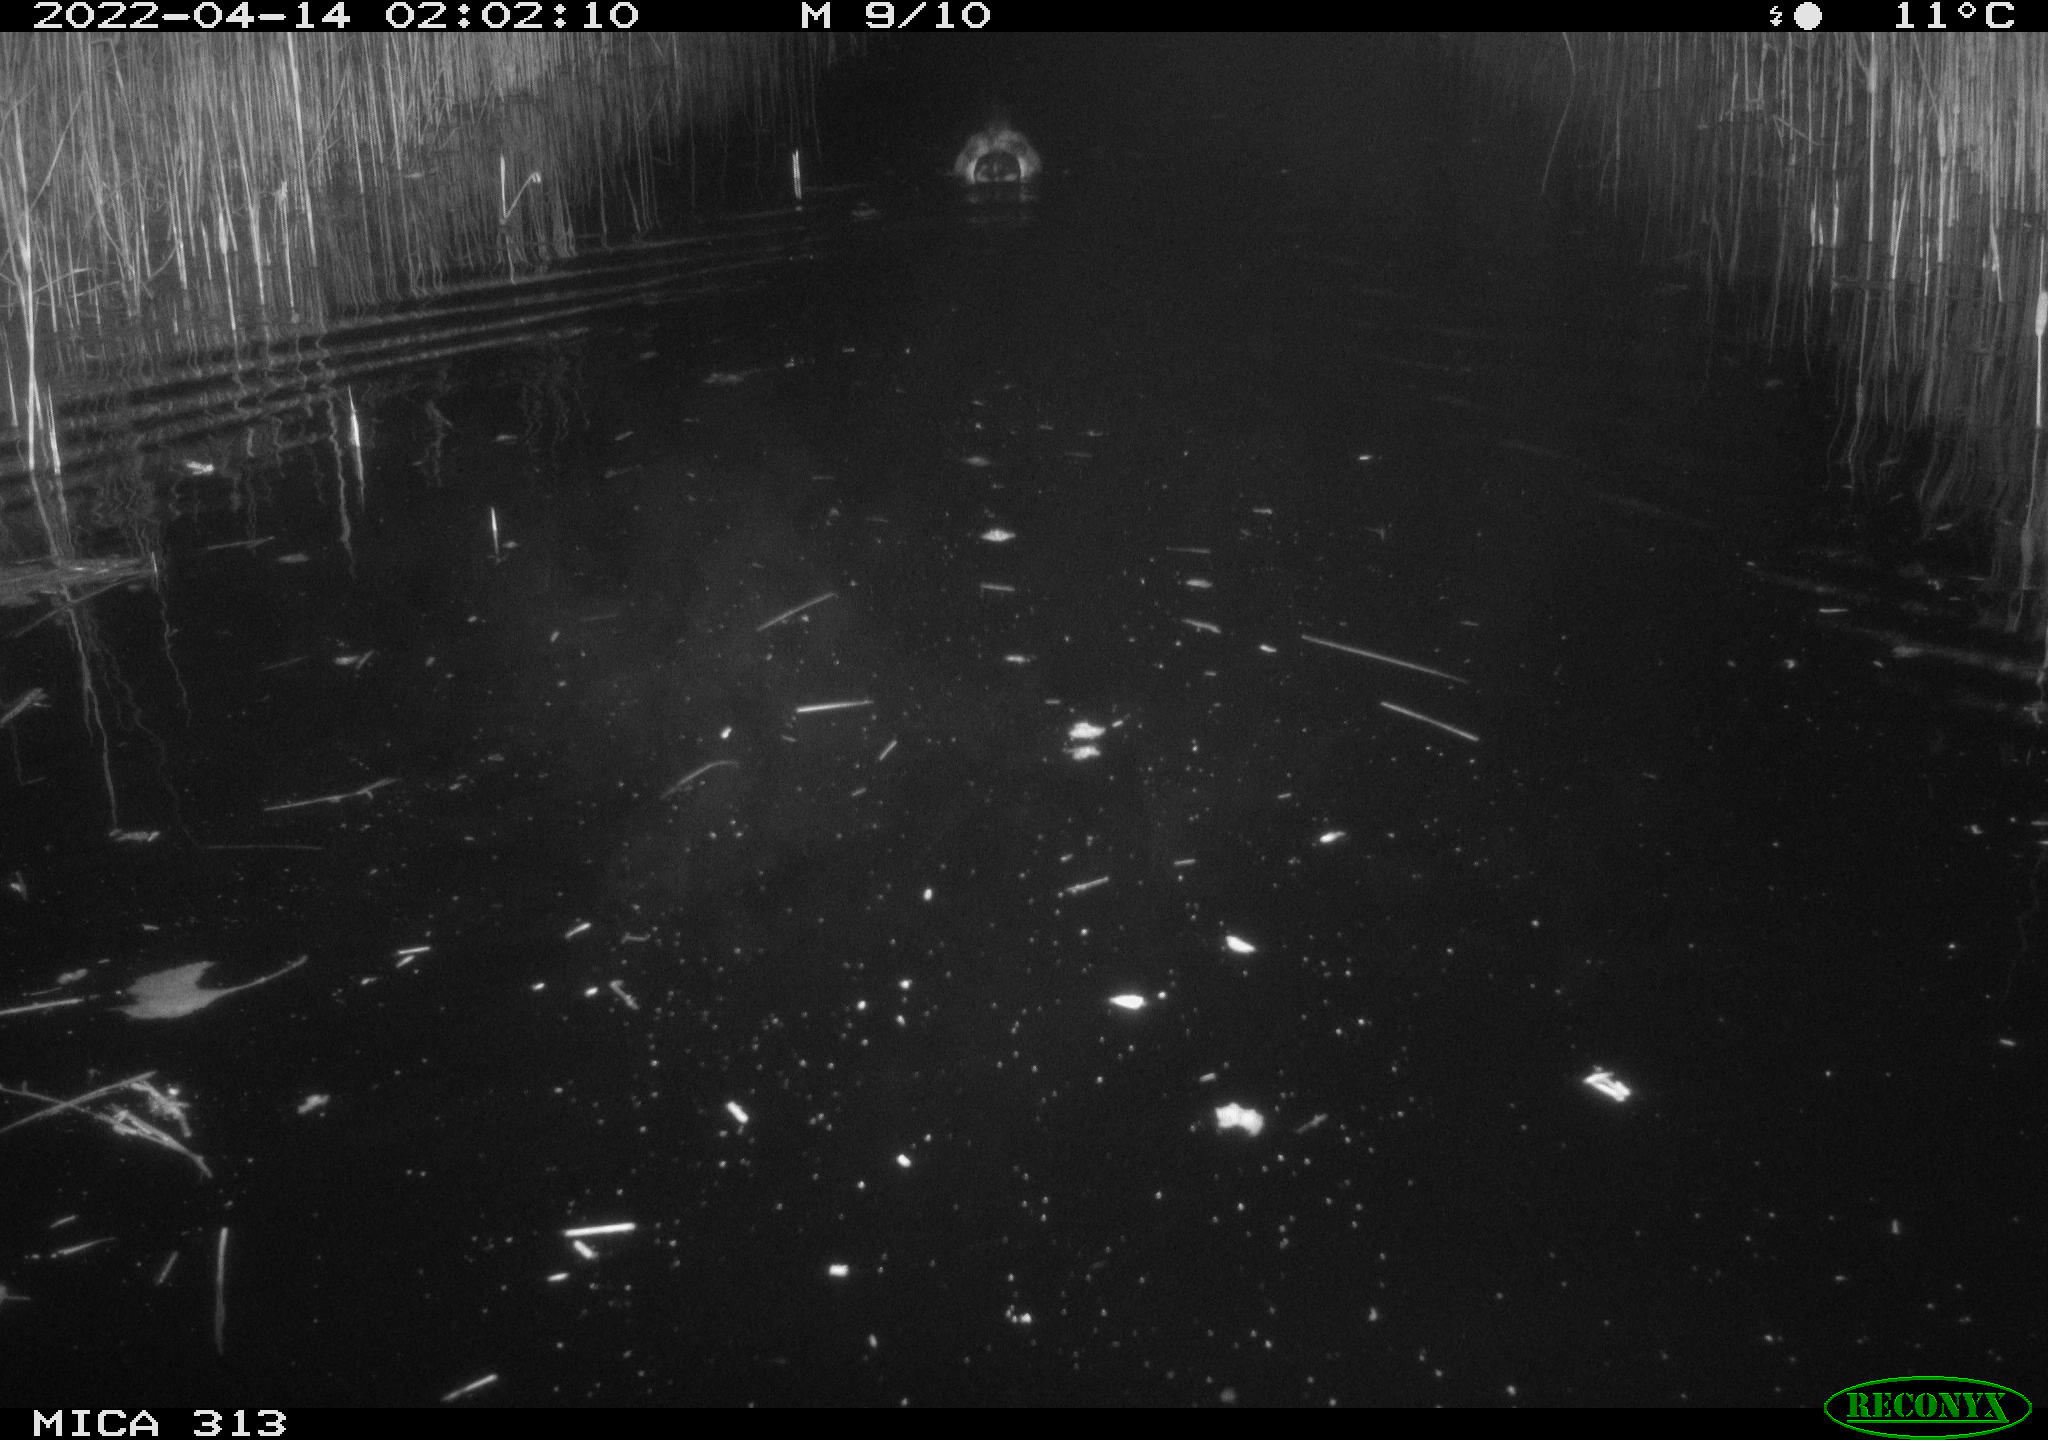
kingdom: Animalia
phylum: Chordata
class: Aves
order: Anseriformes
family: Anatidae
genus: Anas
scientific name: Anas platyrhynchos
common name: Mallard
